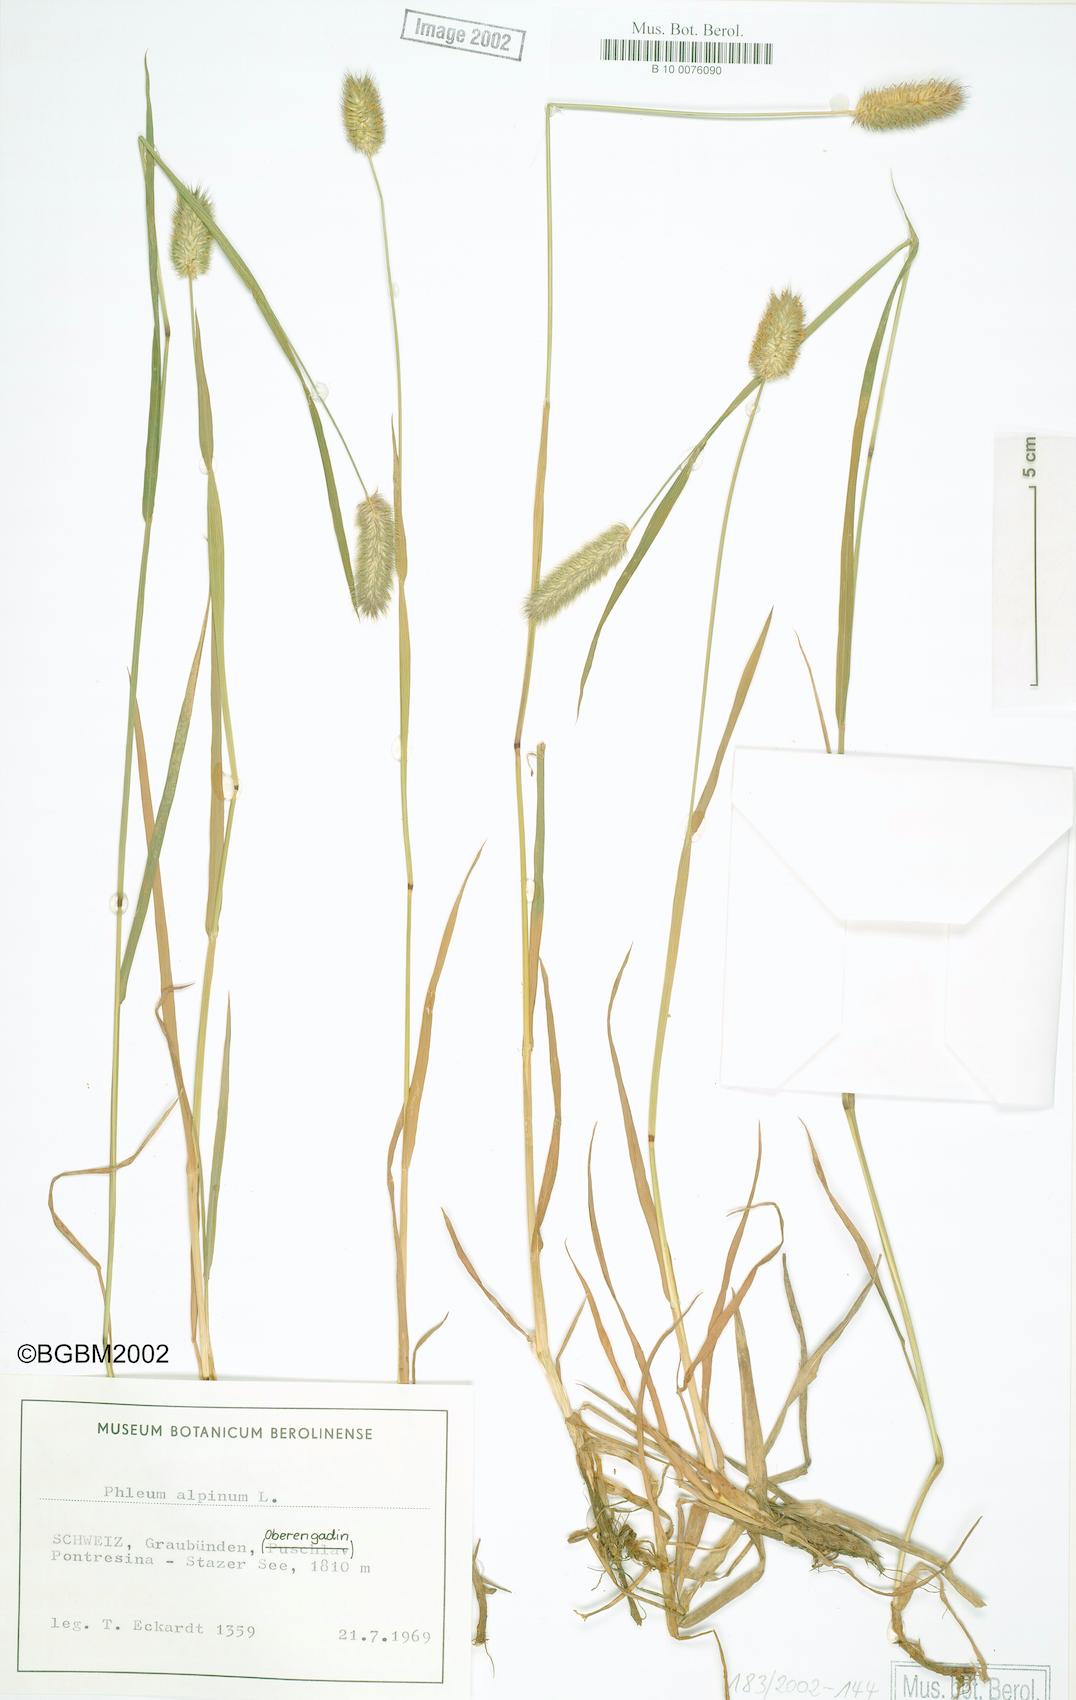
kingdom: Plantae
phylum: Tracheophyta
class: Liliopsida
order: Poales
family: Poaceae
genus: Phleum
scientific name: Phleum alpinum
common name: Alpine cat's-tail
